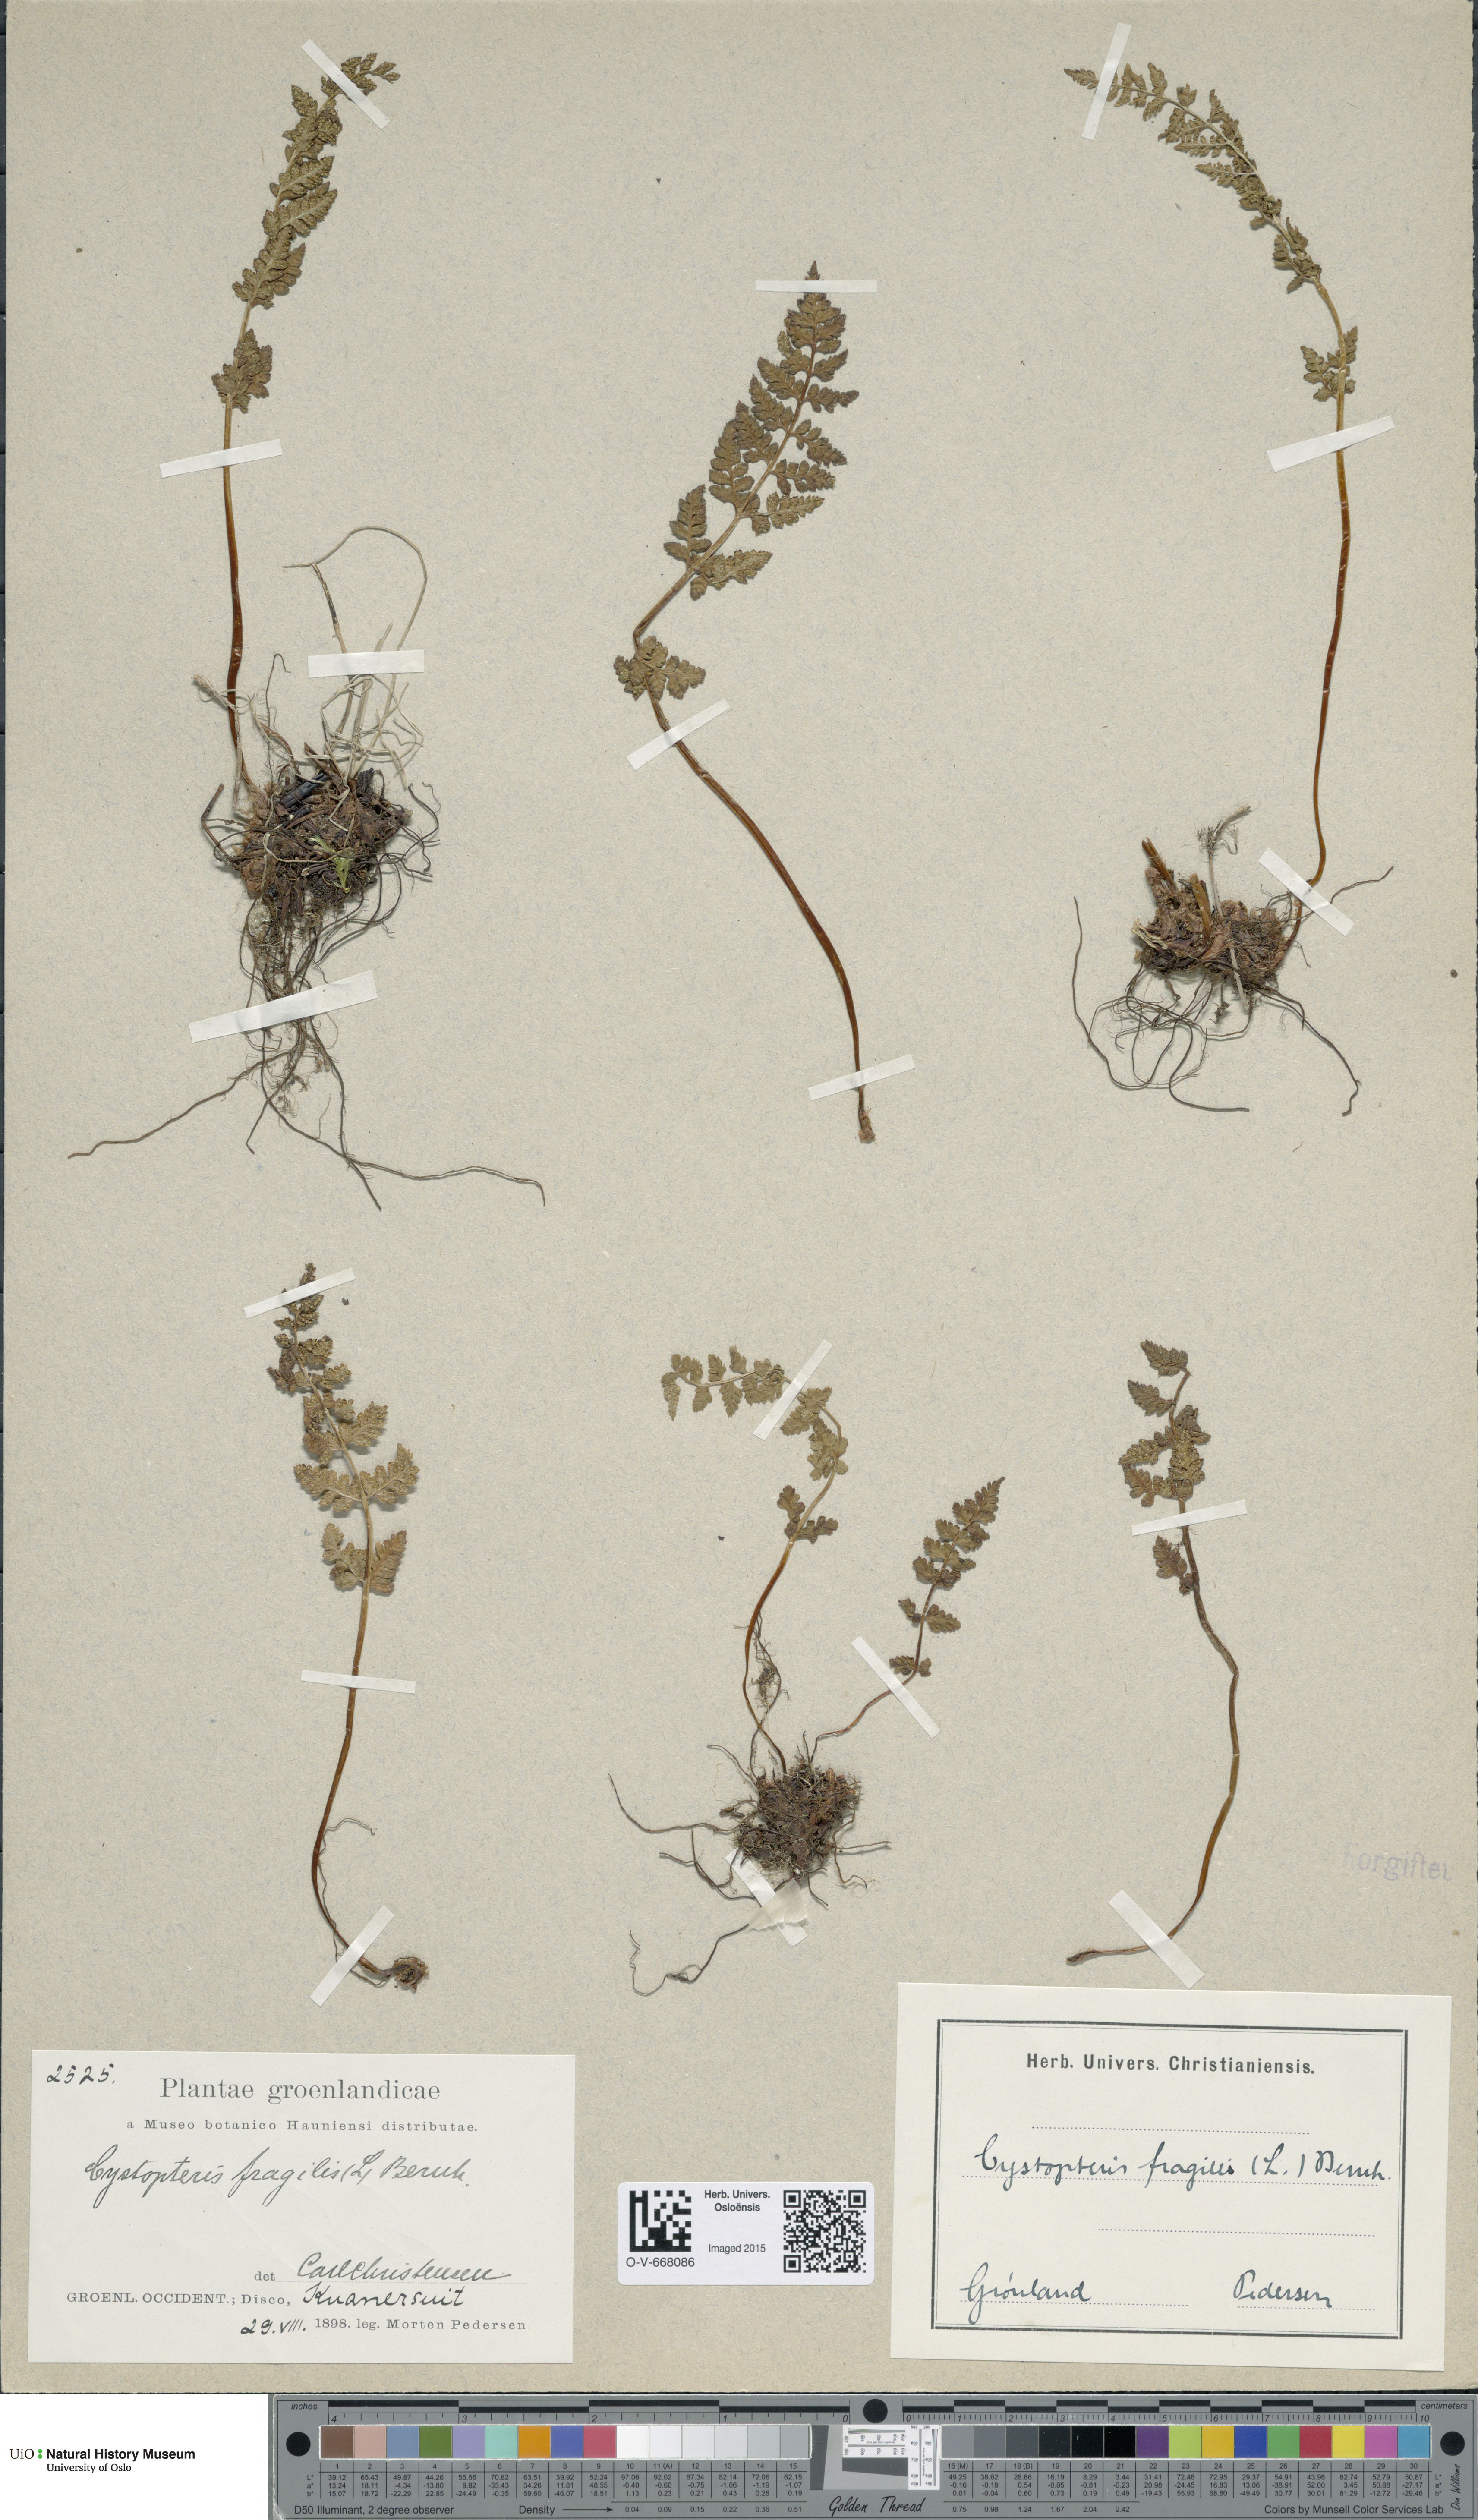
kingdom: Plantae
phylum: Tracheophyta
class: Polypodiopsida
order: Polypodiales
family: Cystopteridaceae
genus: Cystopteris
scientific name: Cystopteris fragilis
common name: Brittle bladder fern
